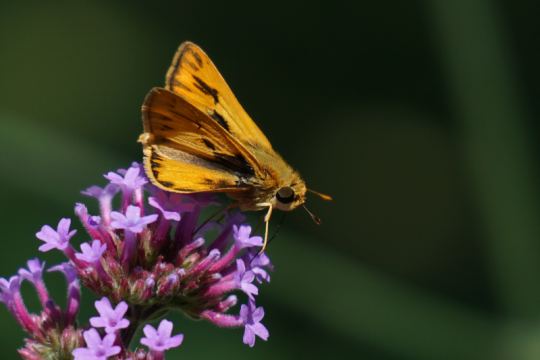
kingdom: Animalia
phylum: Arthropoda
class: Insecta
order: Lepidoptera
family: Hesperiidae
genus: Hylephila
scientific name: Hylephila phyleus
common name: Fiery Skipper
